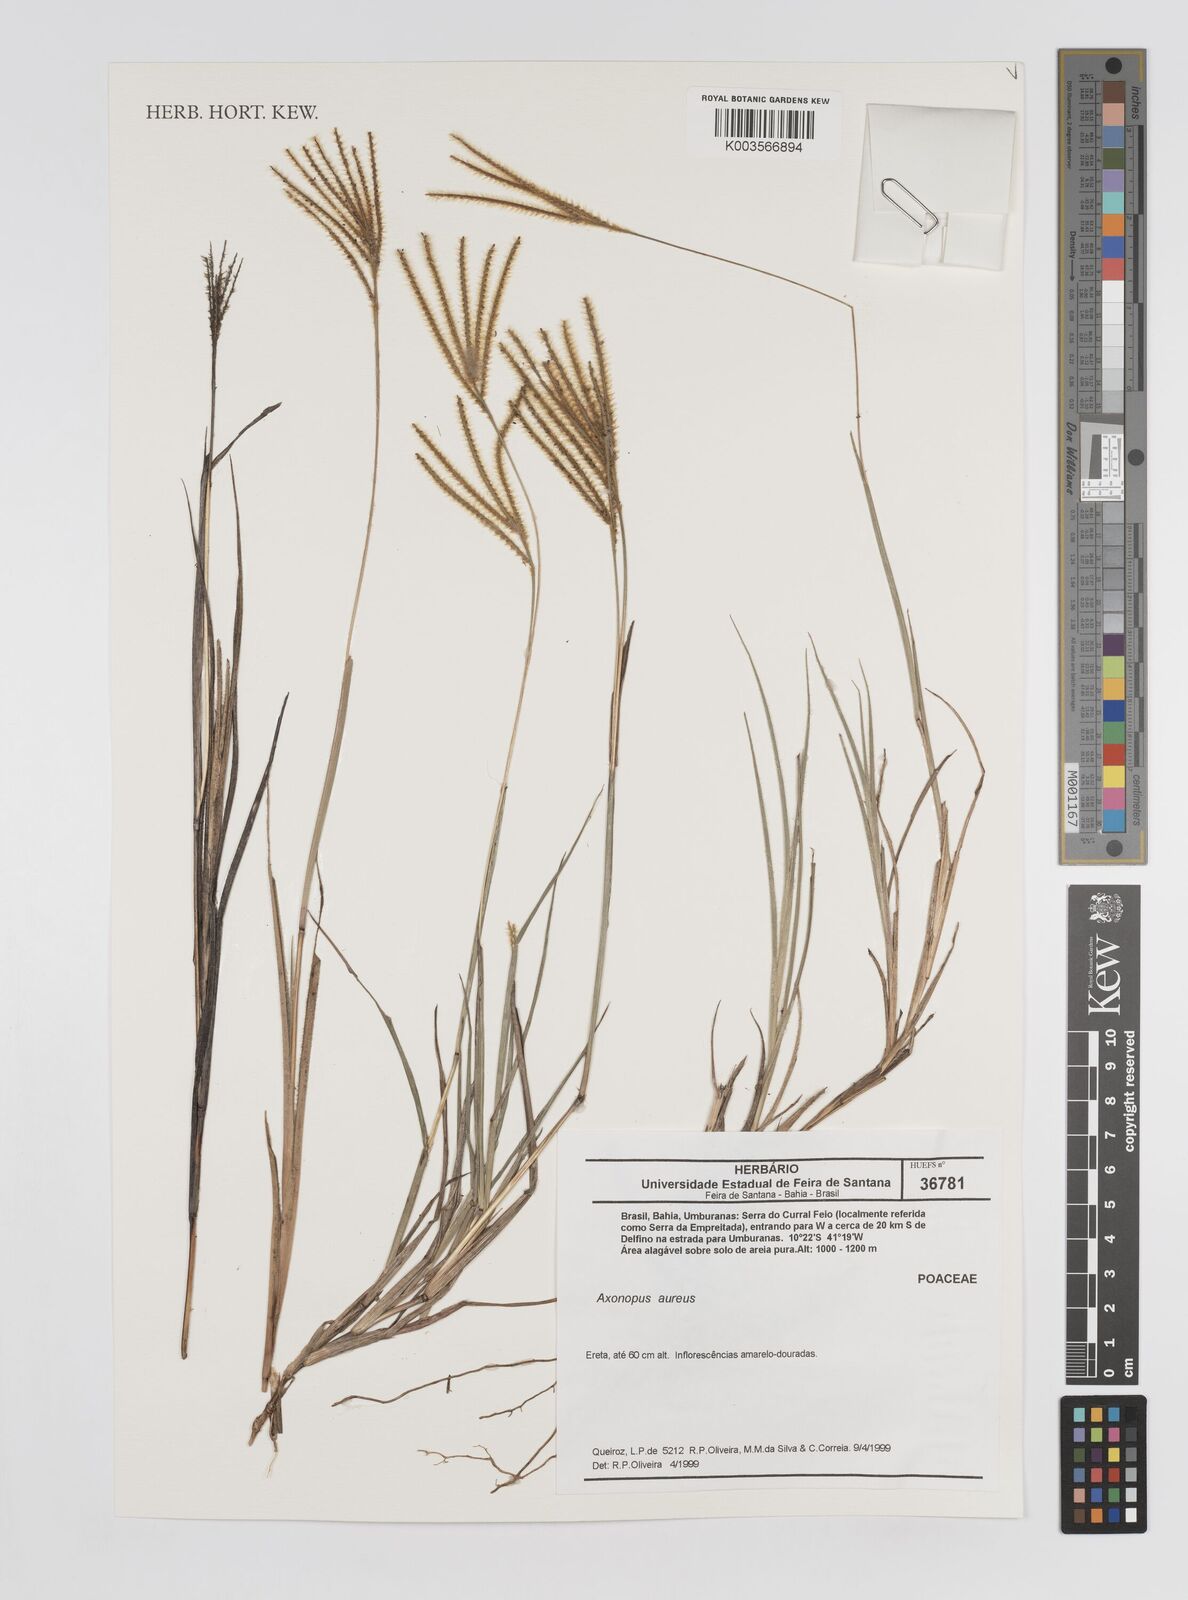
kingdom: Plantae
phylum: Tracheophyta
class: Liliopsida
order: Poales
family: Poaceae
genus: Axonopus
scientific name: Axonopus aureus
